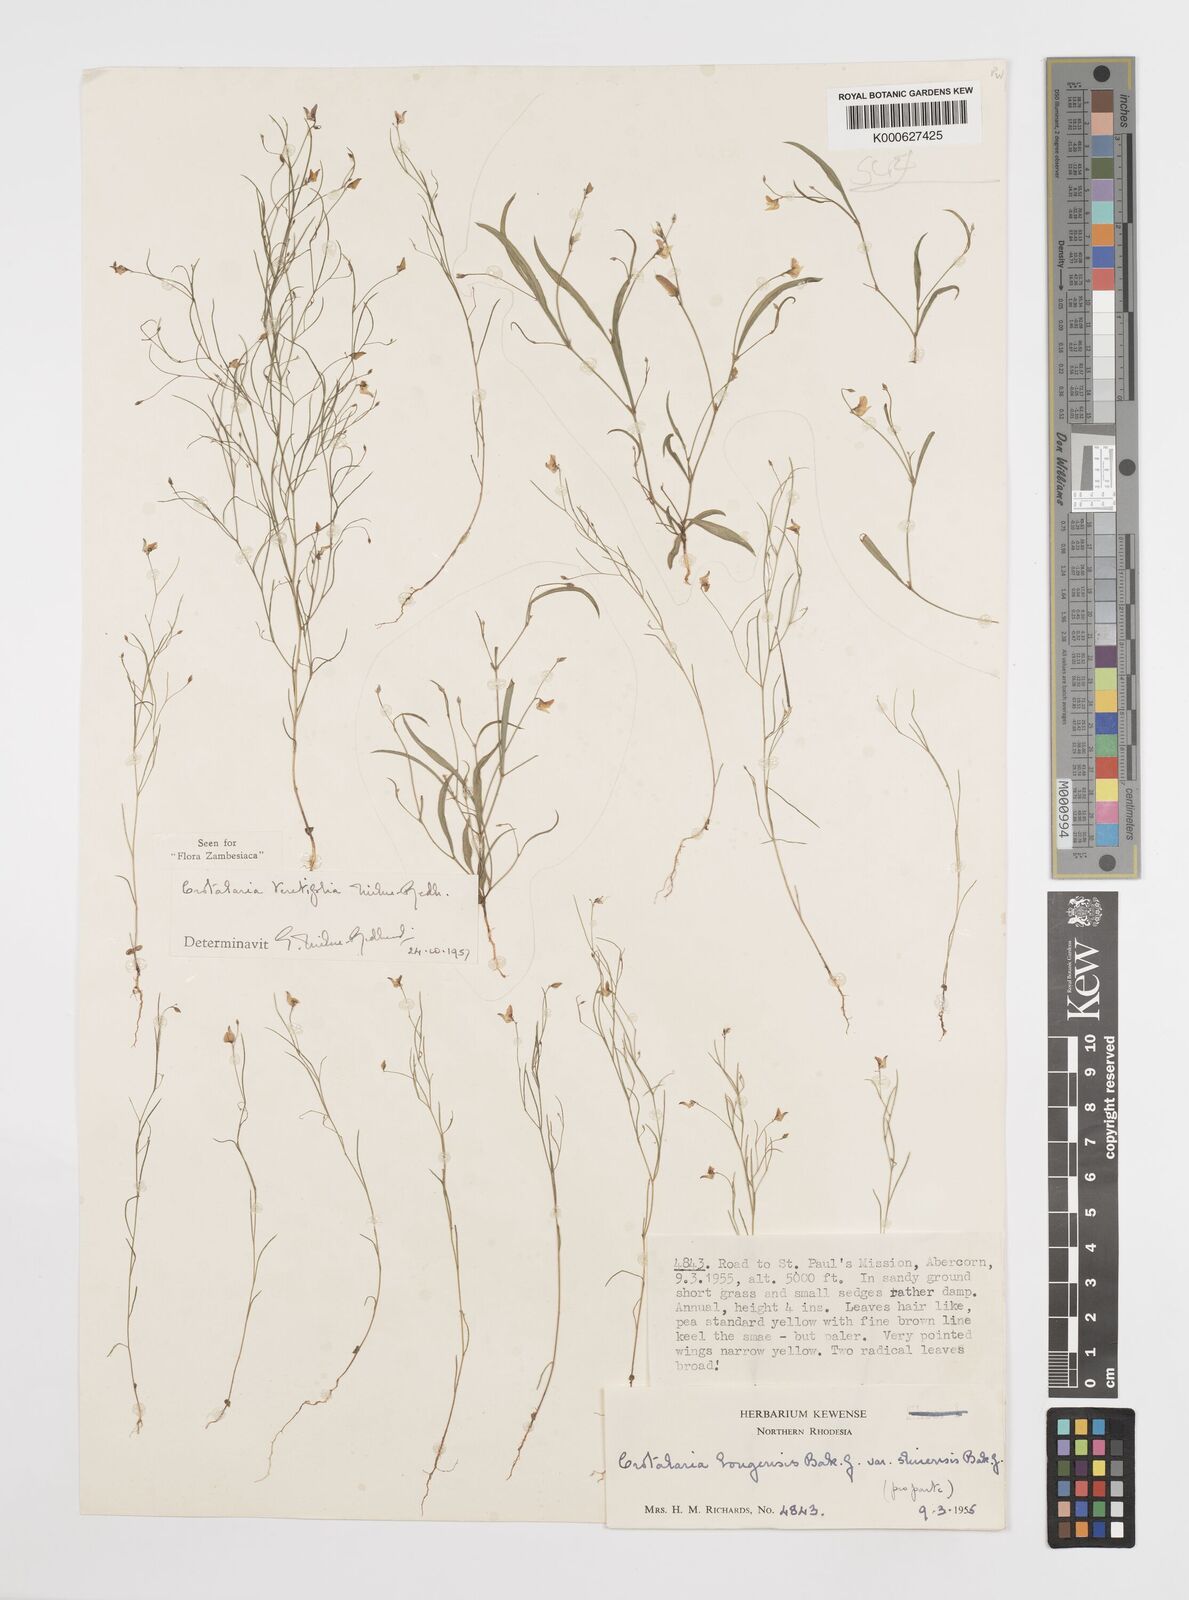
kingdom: Plantae
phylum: Tracheophyta
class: Magnoliopsida
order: Fabales
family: Fabaceae
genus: Crotalaria
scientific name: Crotalaria teretifolia
